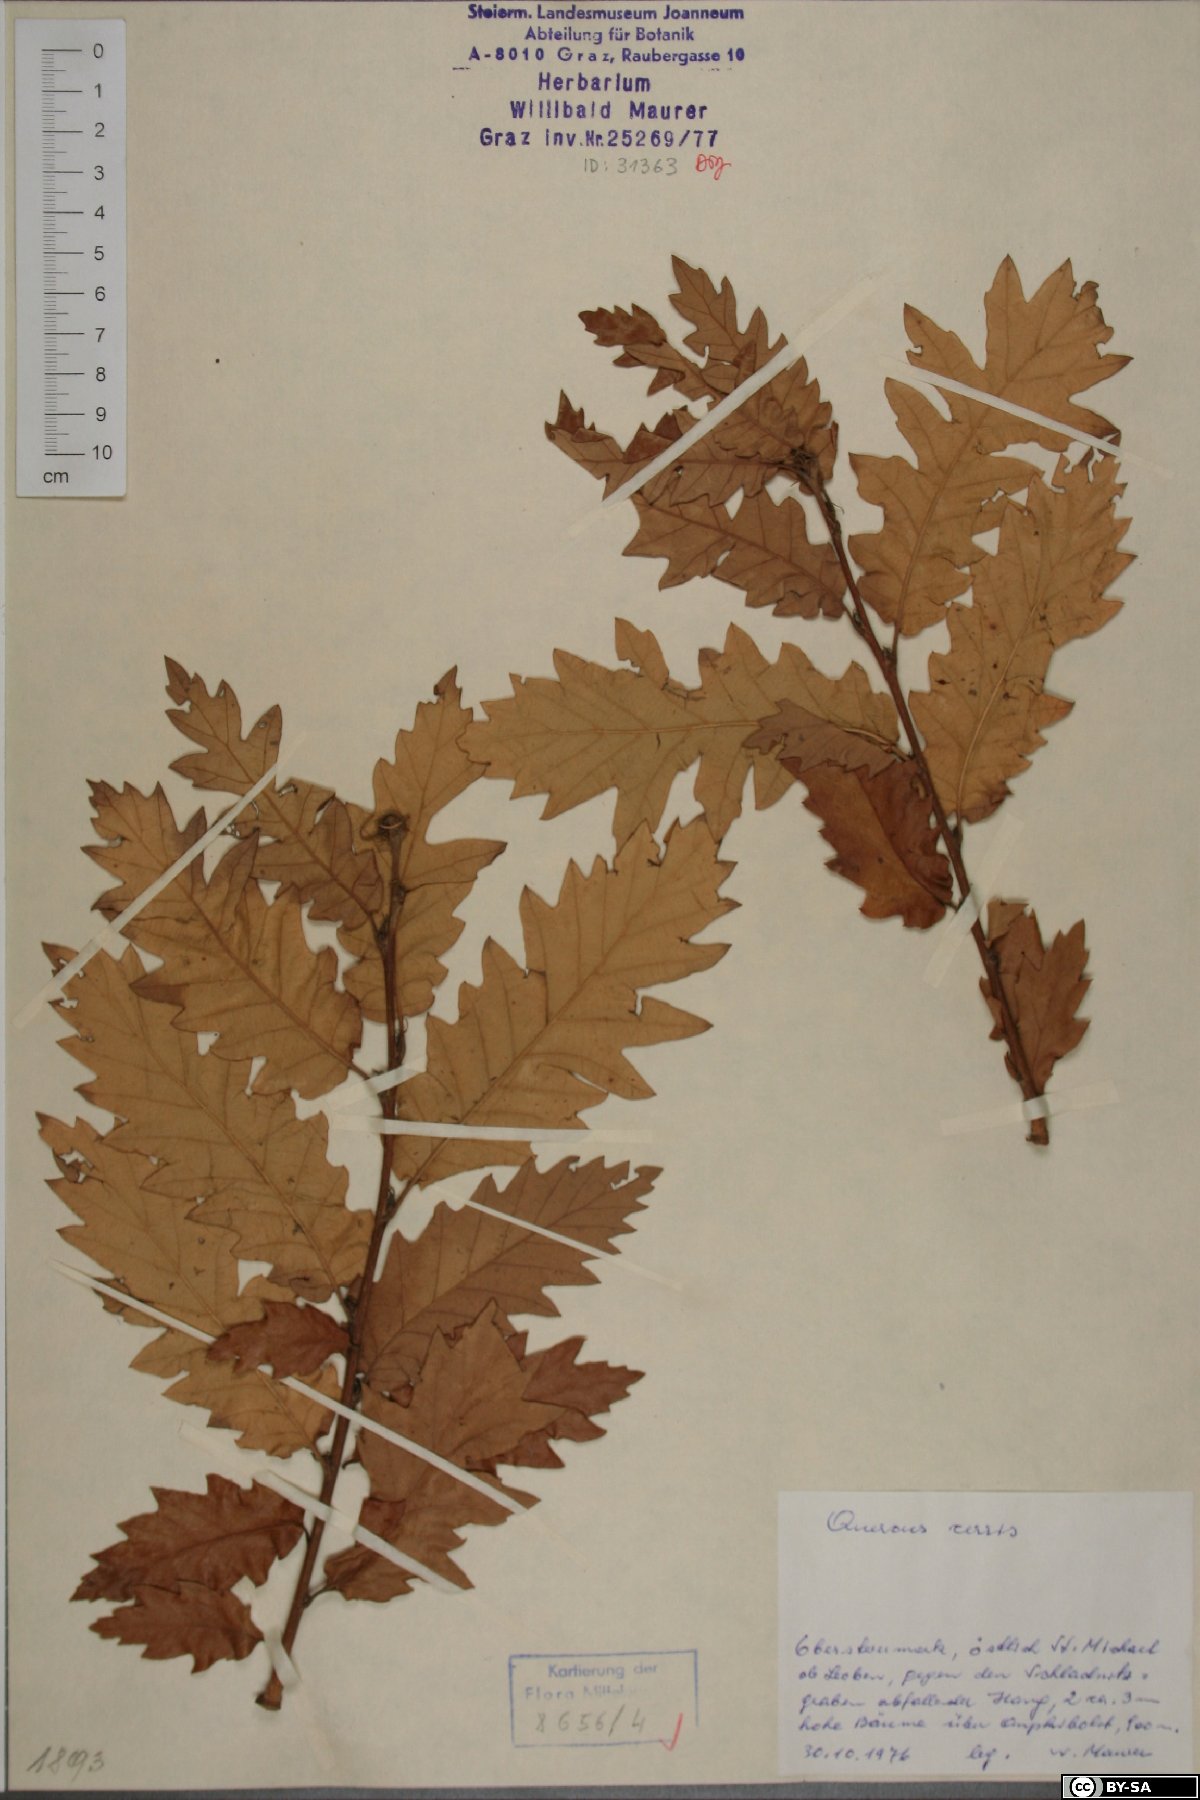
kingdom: Plantae
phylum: Tracheophyta
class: Magnoliopsida
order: Fagales
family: Fagaceae
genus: Quercus
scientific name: Quercus cerris
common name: Turkey oak
